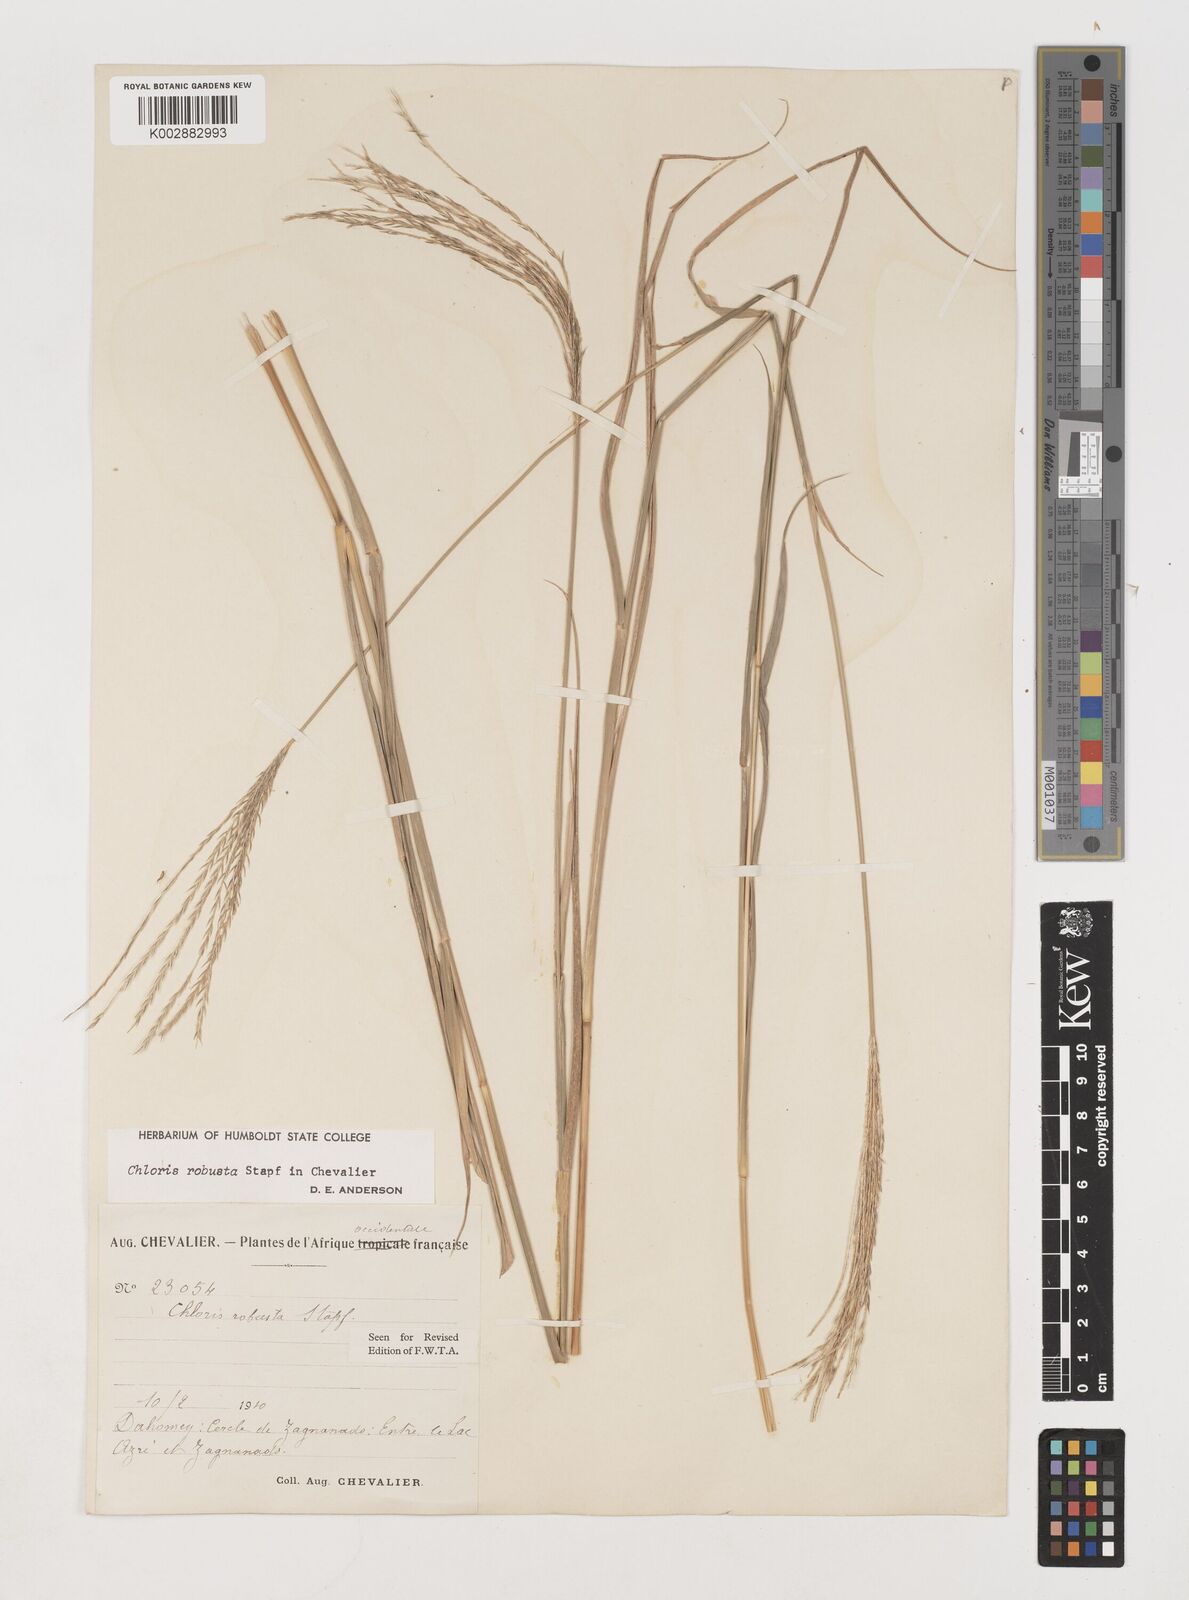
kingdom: Plantae
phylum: Tracheophyta
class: Liliopsida
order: Poales
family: Poaceae
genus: Chloris
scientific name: Chloris robusta
